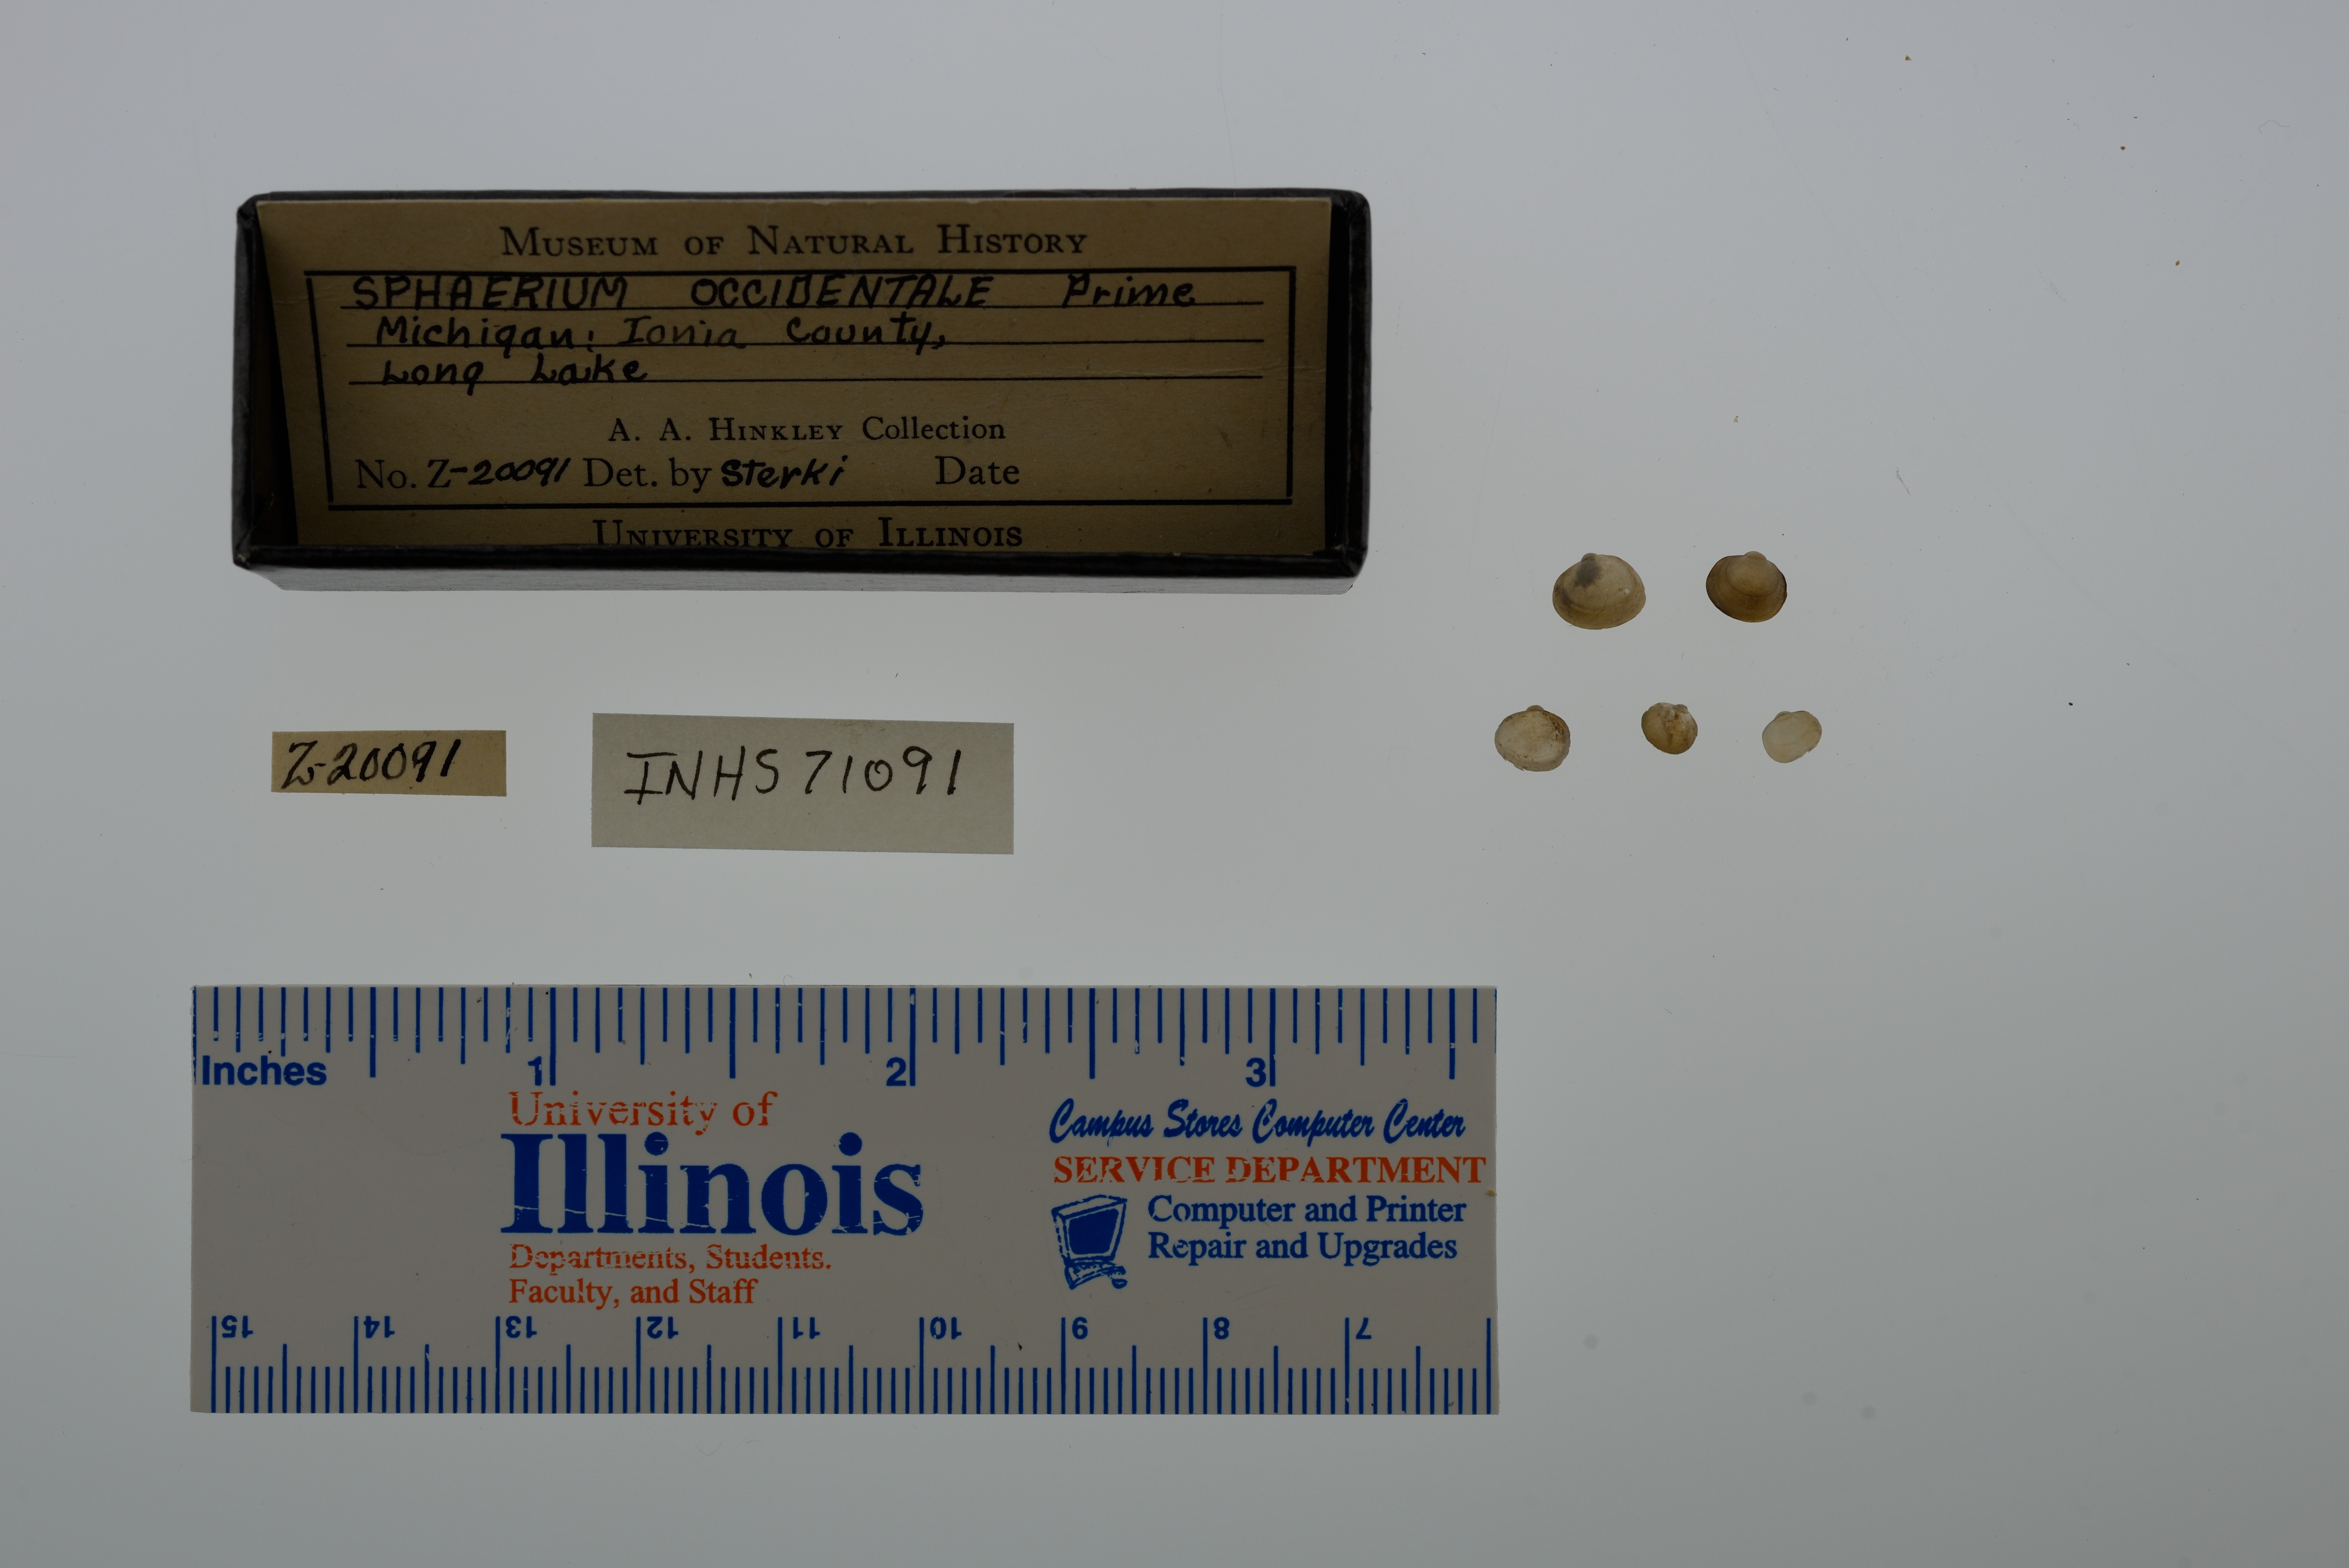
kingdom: Animalia
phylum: Mollusca
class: Bivalvia
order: Sphaeriida
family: Sphaeriidae
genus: Sphaerium
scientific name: Sphaerium occidentale
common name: Herrington fingernailclam
